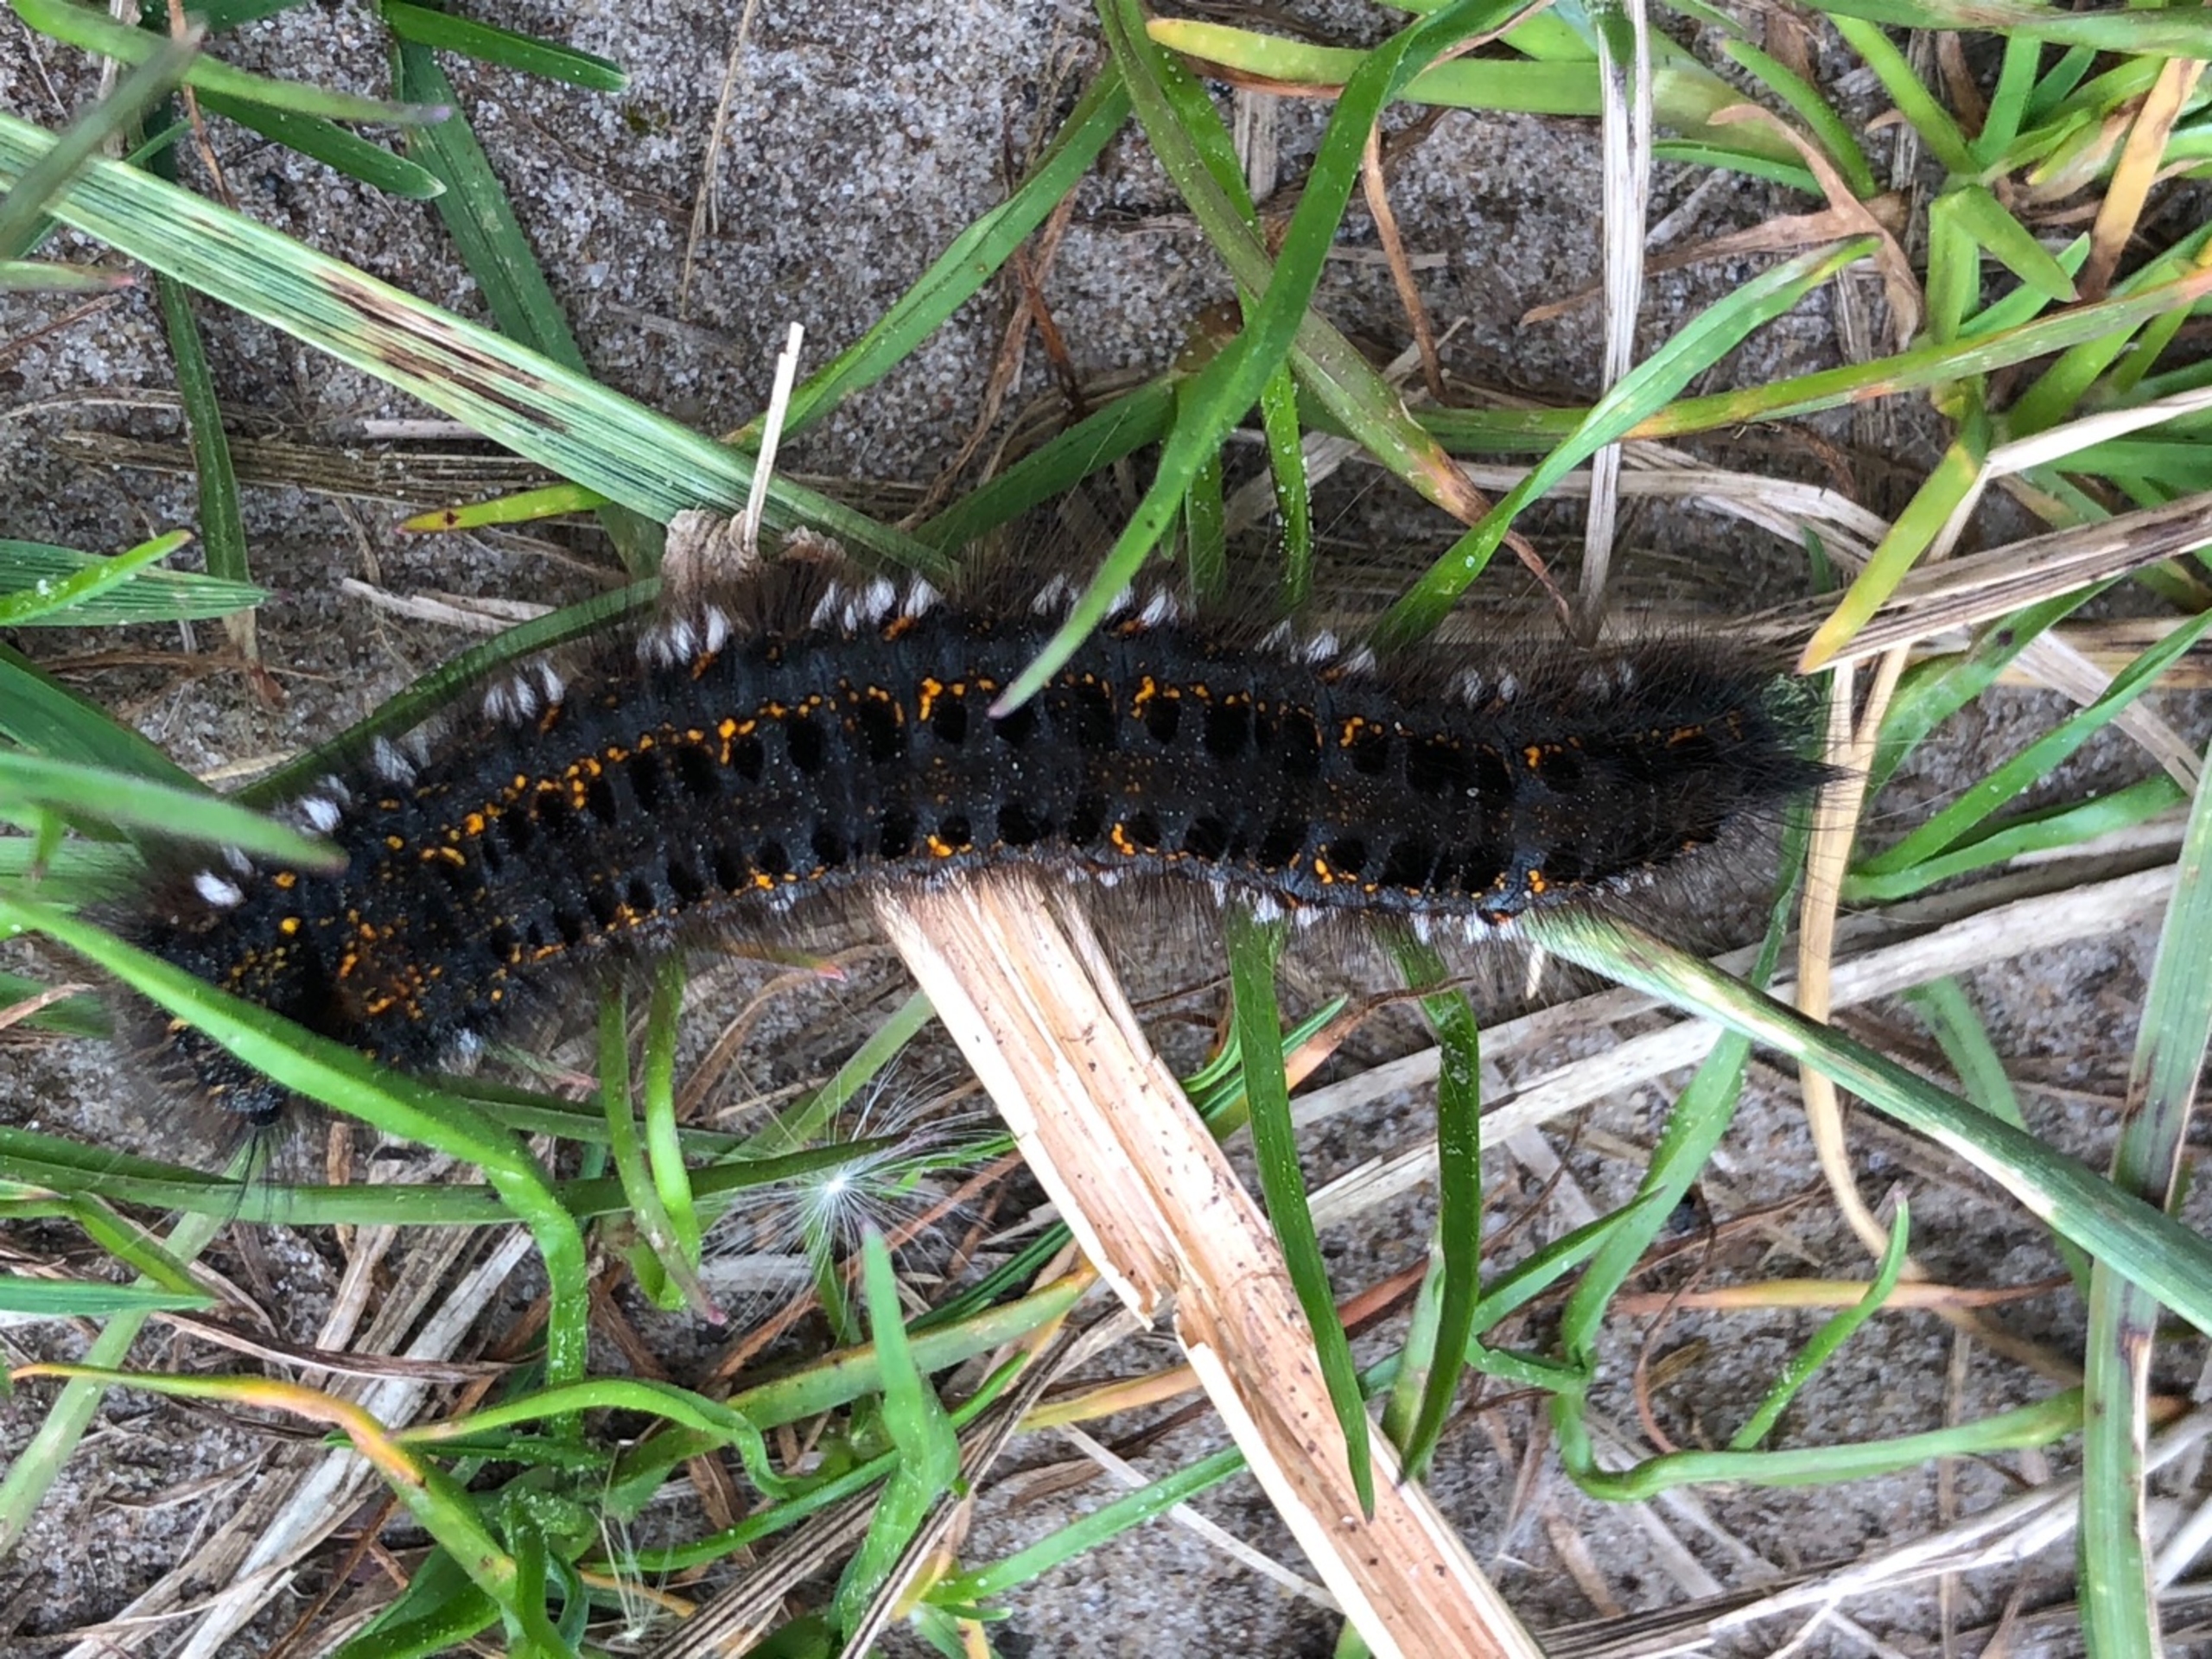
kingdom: Animalia
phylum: Arthropoda
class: Insecta
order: Lepidoptera
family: Lasiocampidae
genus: Euthrix
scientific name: Euthrix potatoria
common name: Græsspinder
